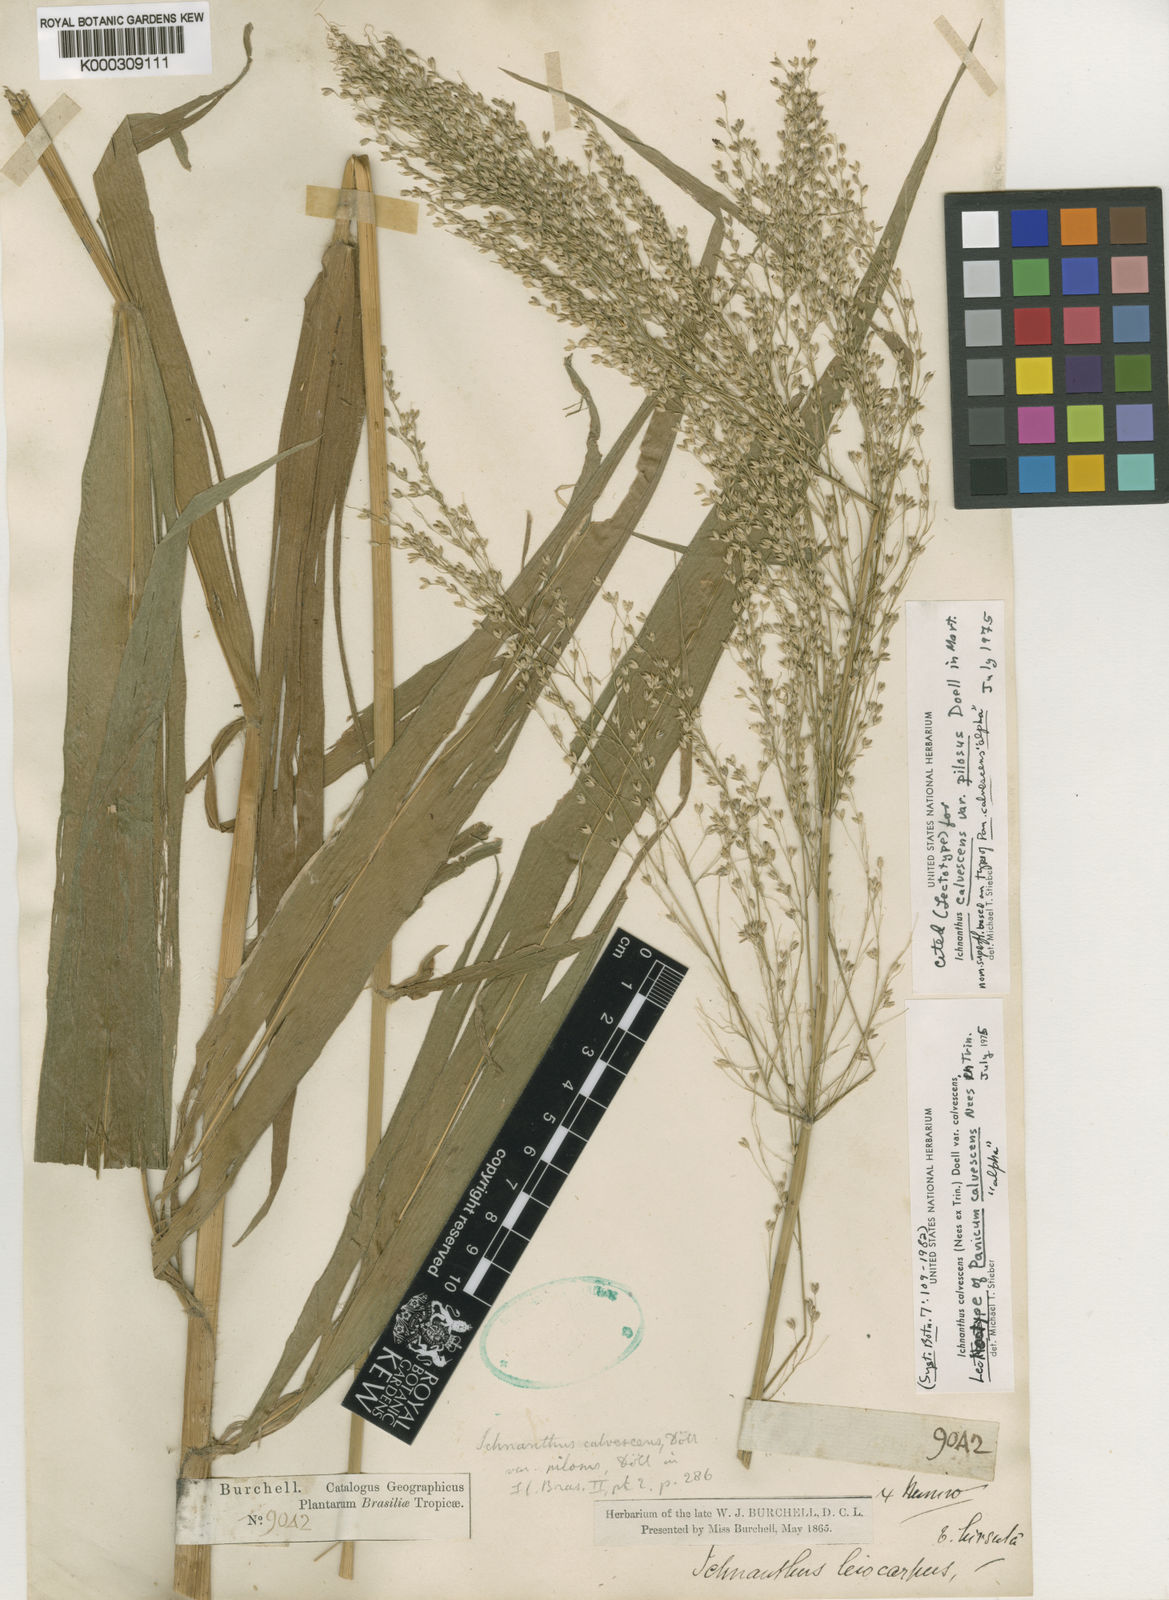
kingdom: Plantae
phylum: Tracheophyta
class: Liliopsida
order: Poales
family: Poaceae
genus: Ichnanthus
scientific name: Ichnanthus
